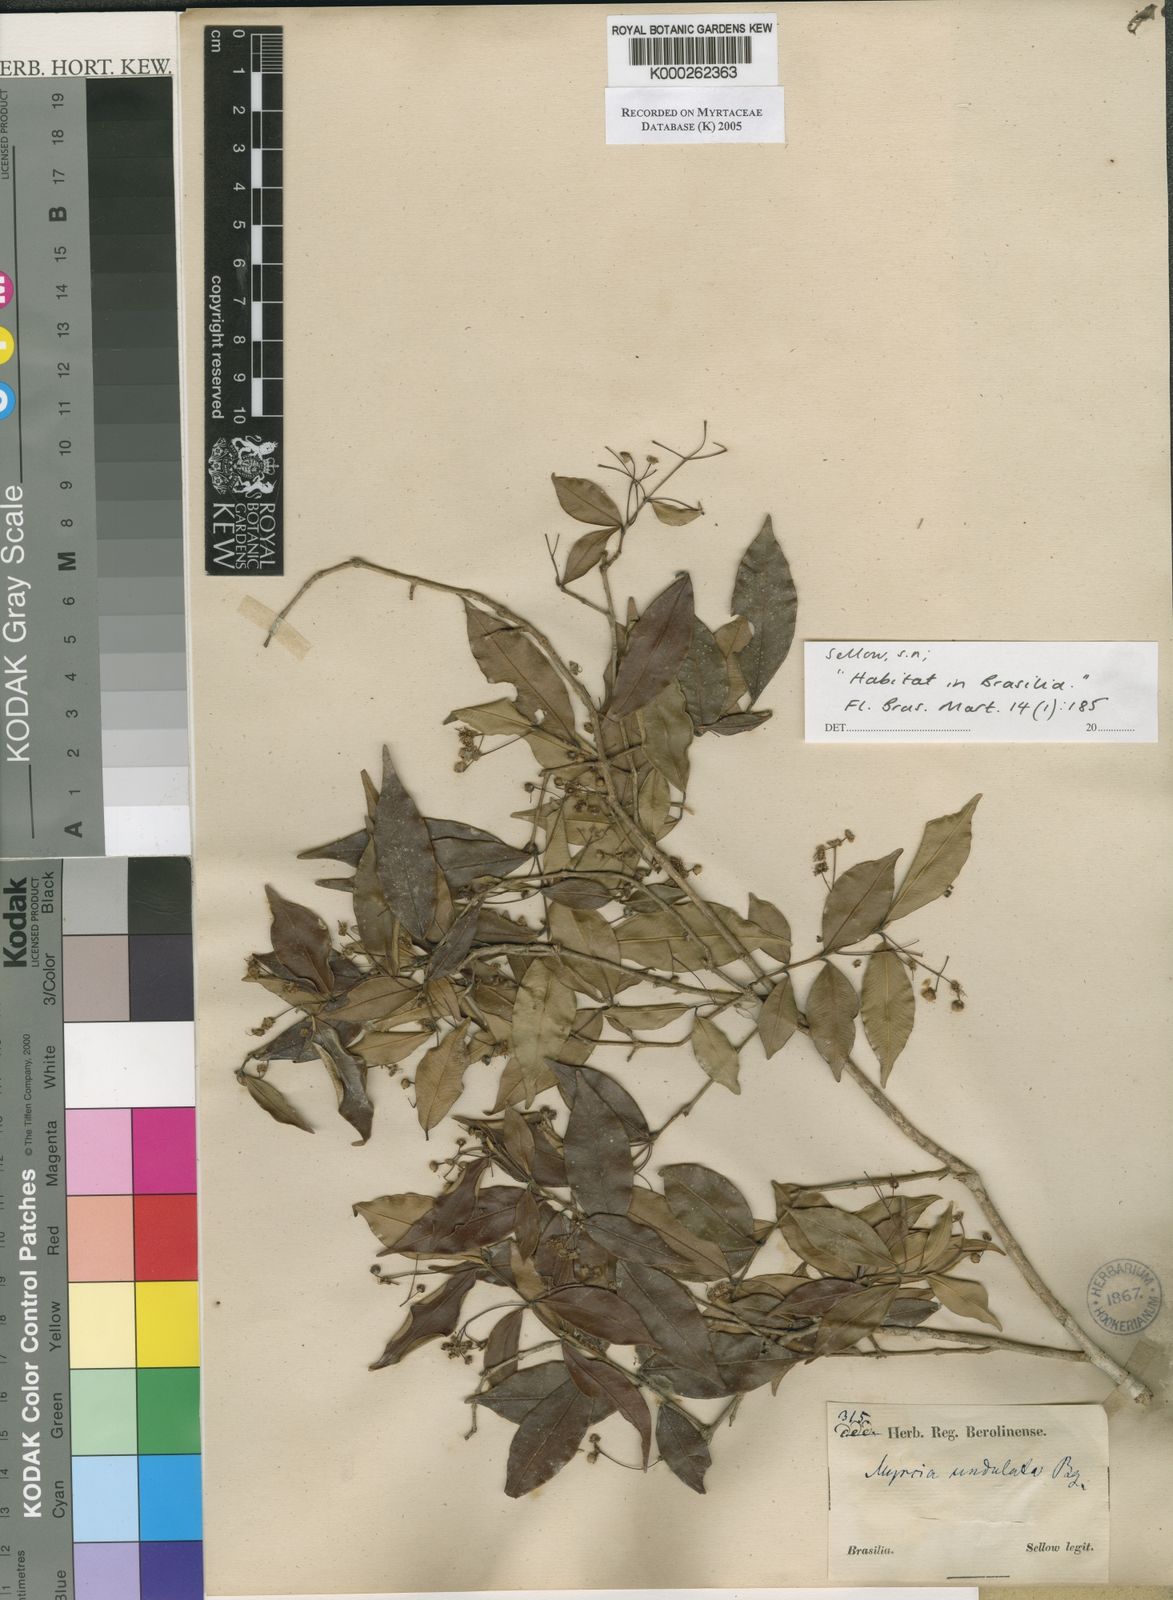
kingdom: Plantae
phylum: Tracheophyta
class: Magnoliopsida
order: Myrtales
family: Myrtaceae
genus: Myrcia
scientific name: Myrcia undulata
